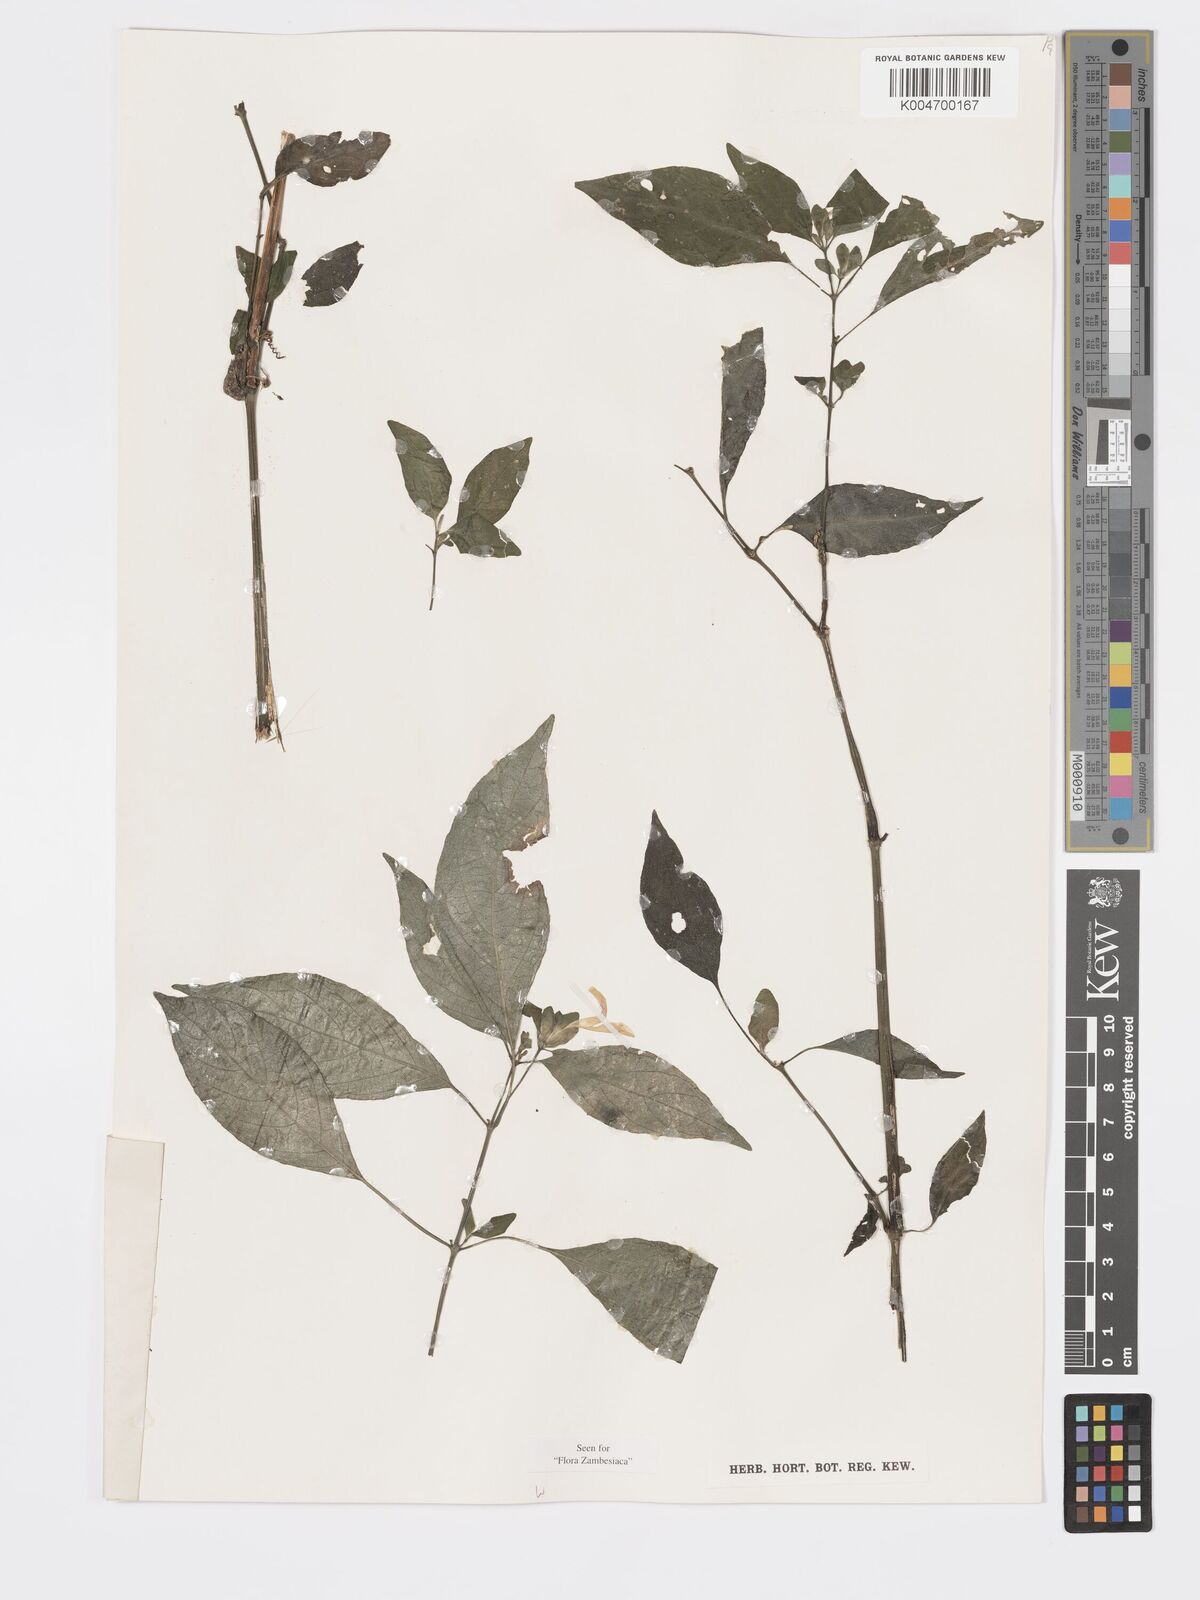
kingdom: Plantae
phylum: Tracheophyta
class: Magnoliopsida
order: Lamiales
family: Acanthaceae
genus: Hypoestes
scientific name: Hypoestes triflora
